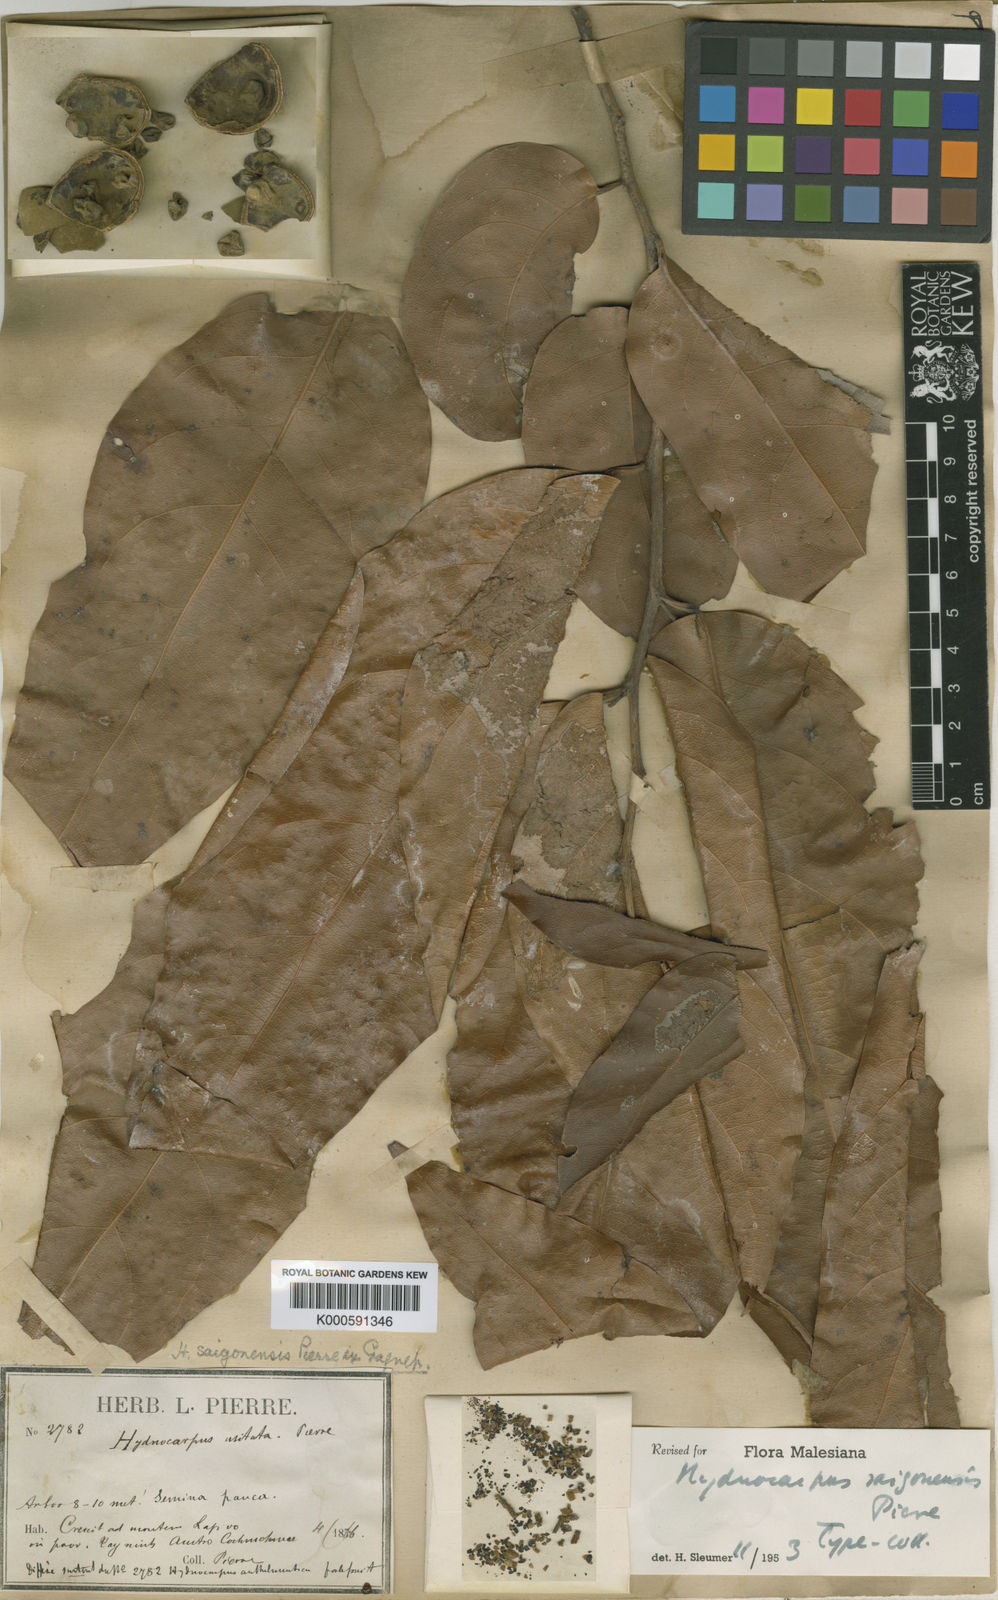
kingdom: Plantae
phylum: Tracheophyta
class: Magnoliopsida
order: Malpighiales
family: Achariaceae
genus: Hydnocarpus
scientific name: Hydnocarpus saigonensis
